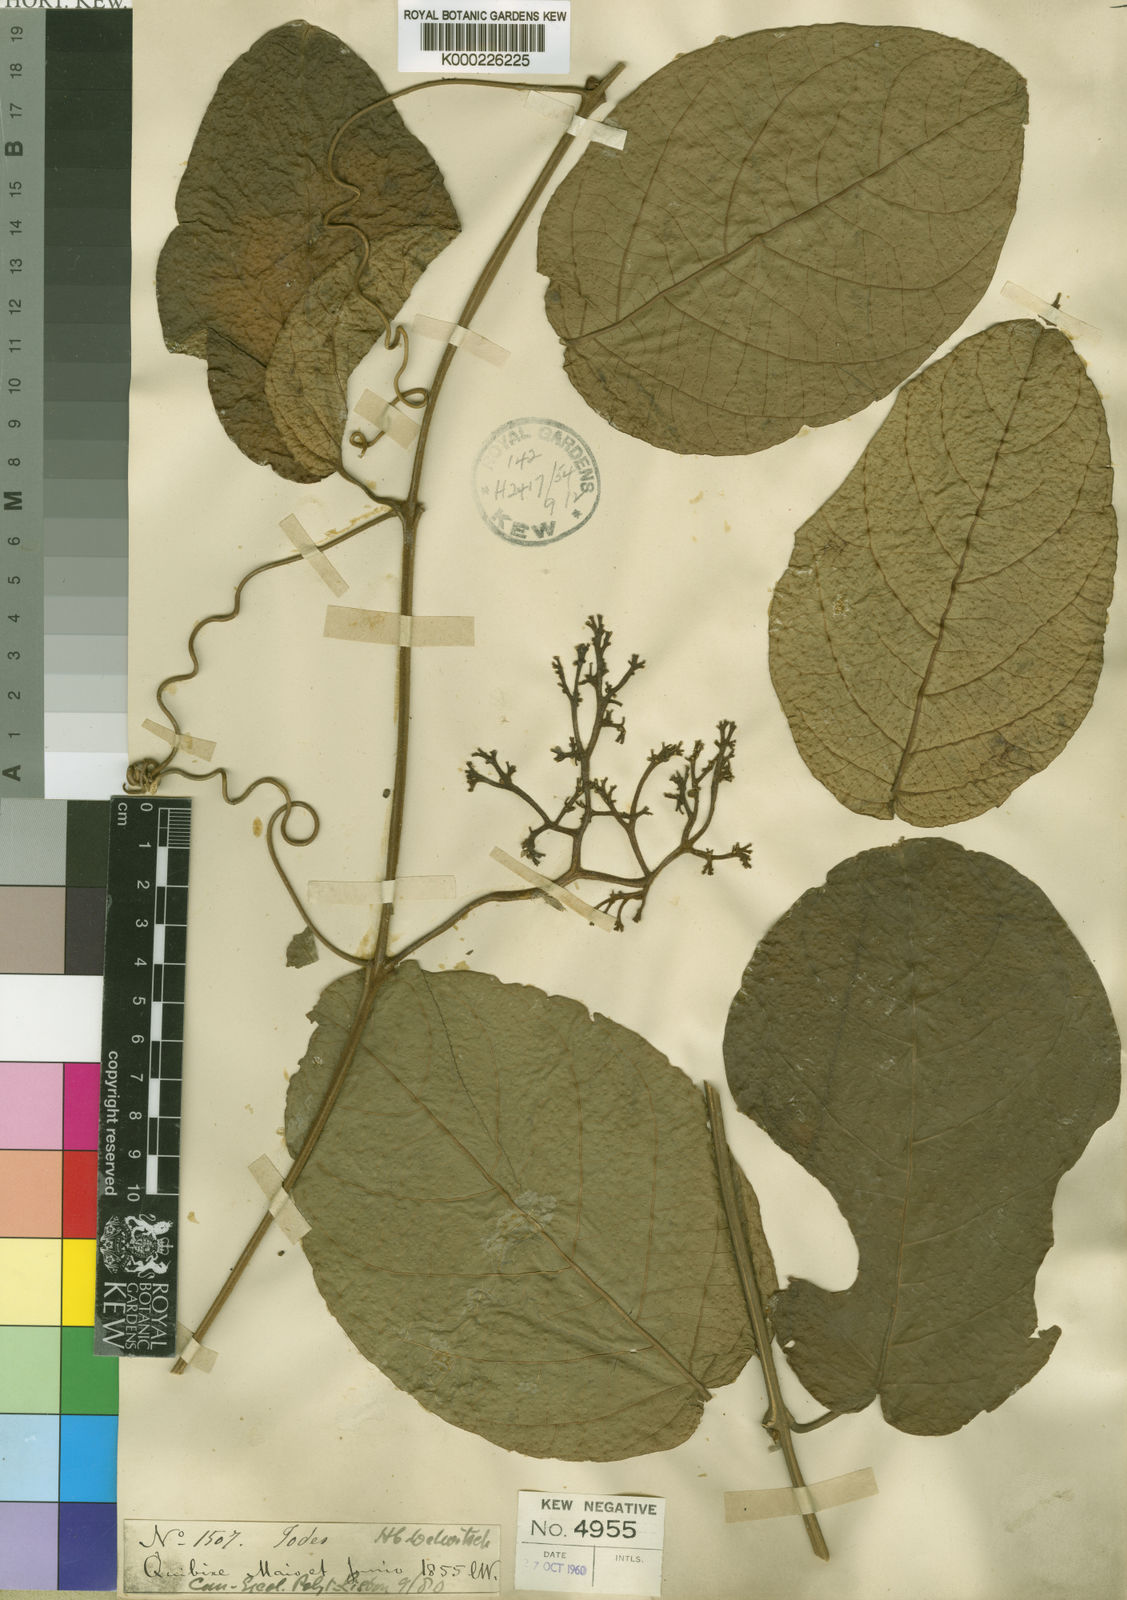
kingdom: Plantae
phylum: Tracheophyta
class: Magnoliopsida
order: Icacinales
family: Icacinaceae
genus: Iodes
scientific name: Iodes africana
